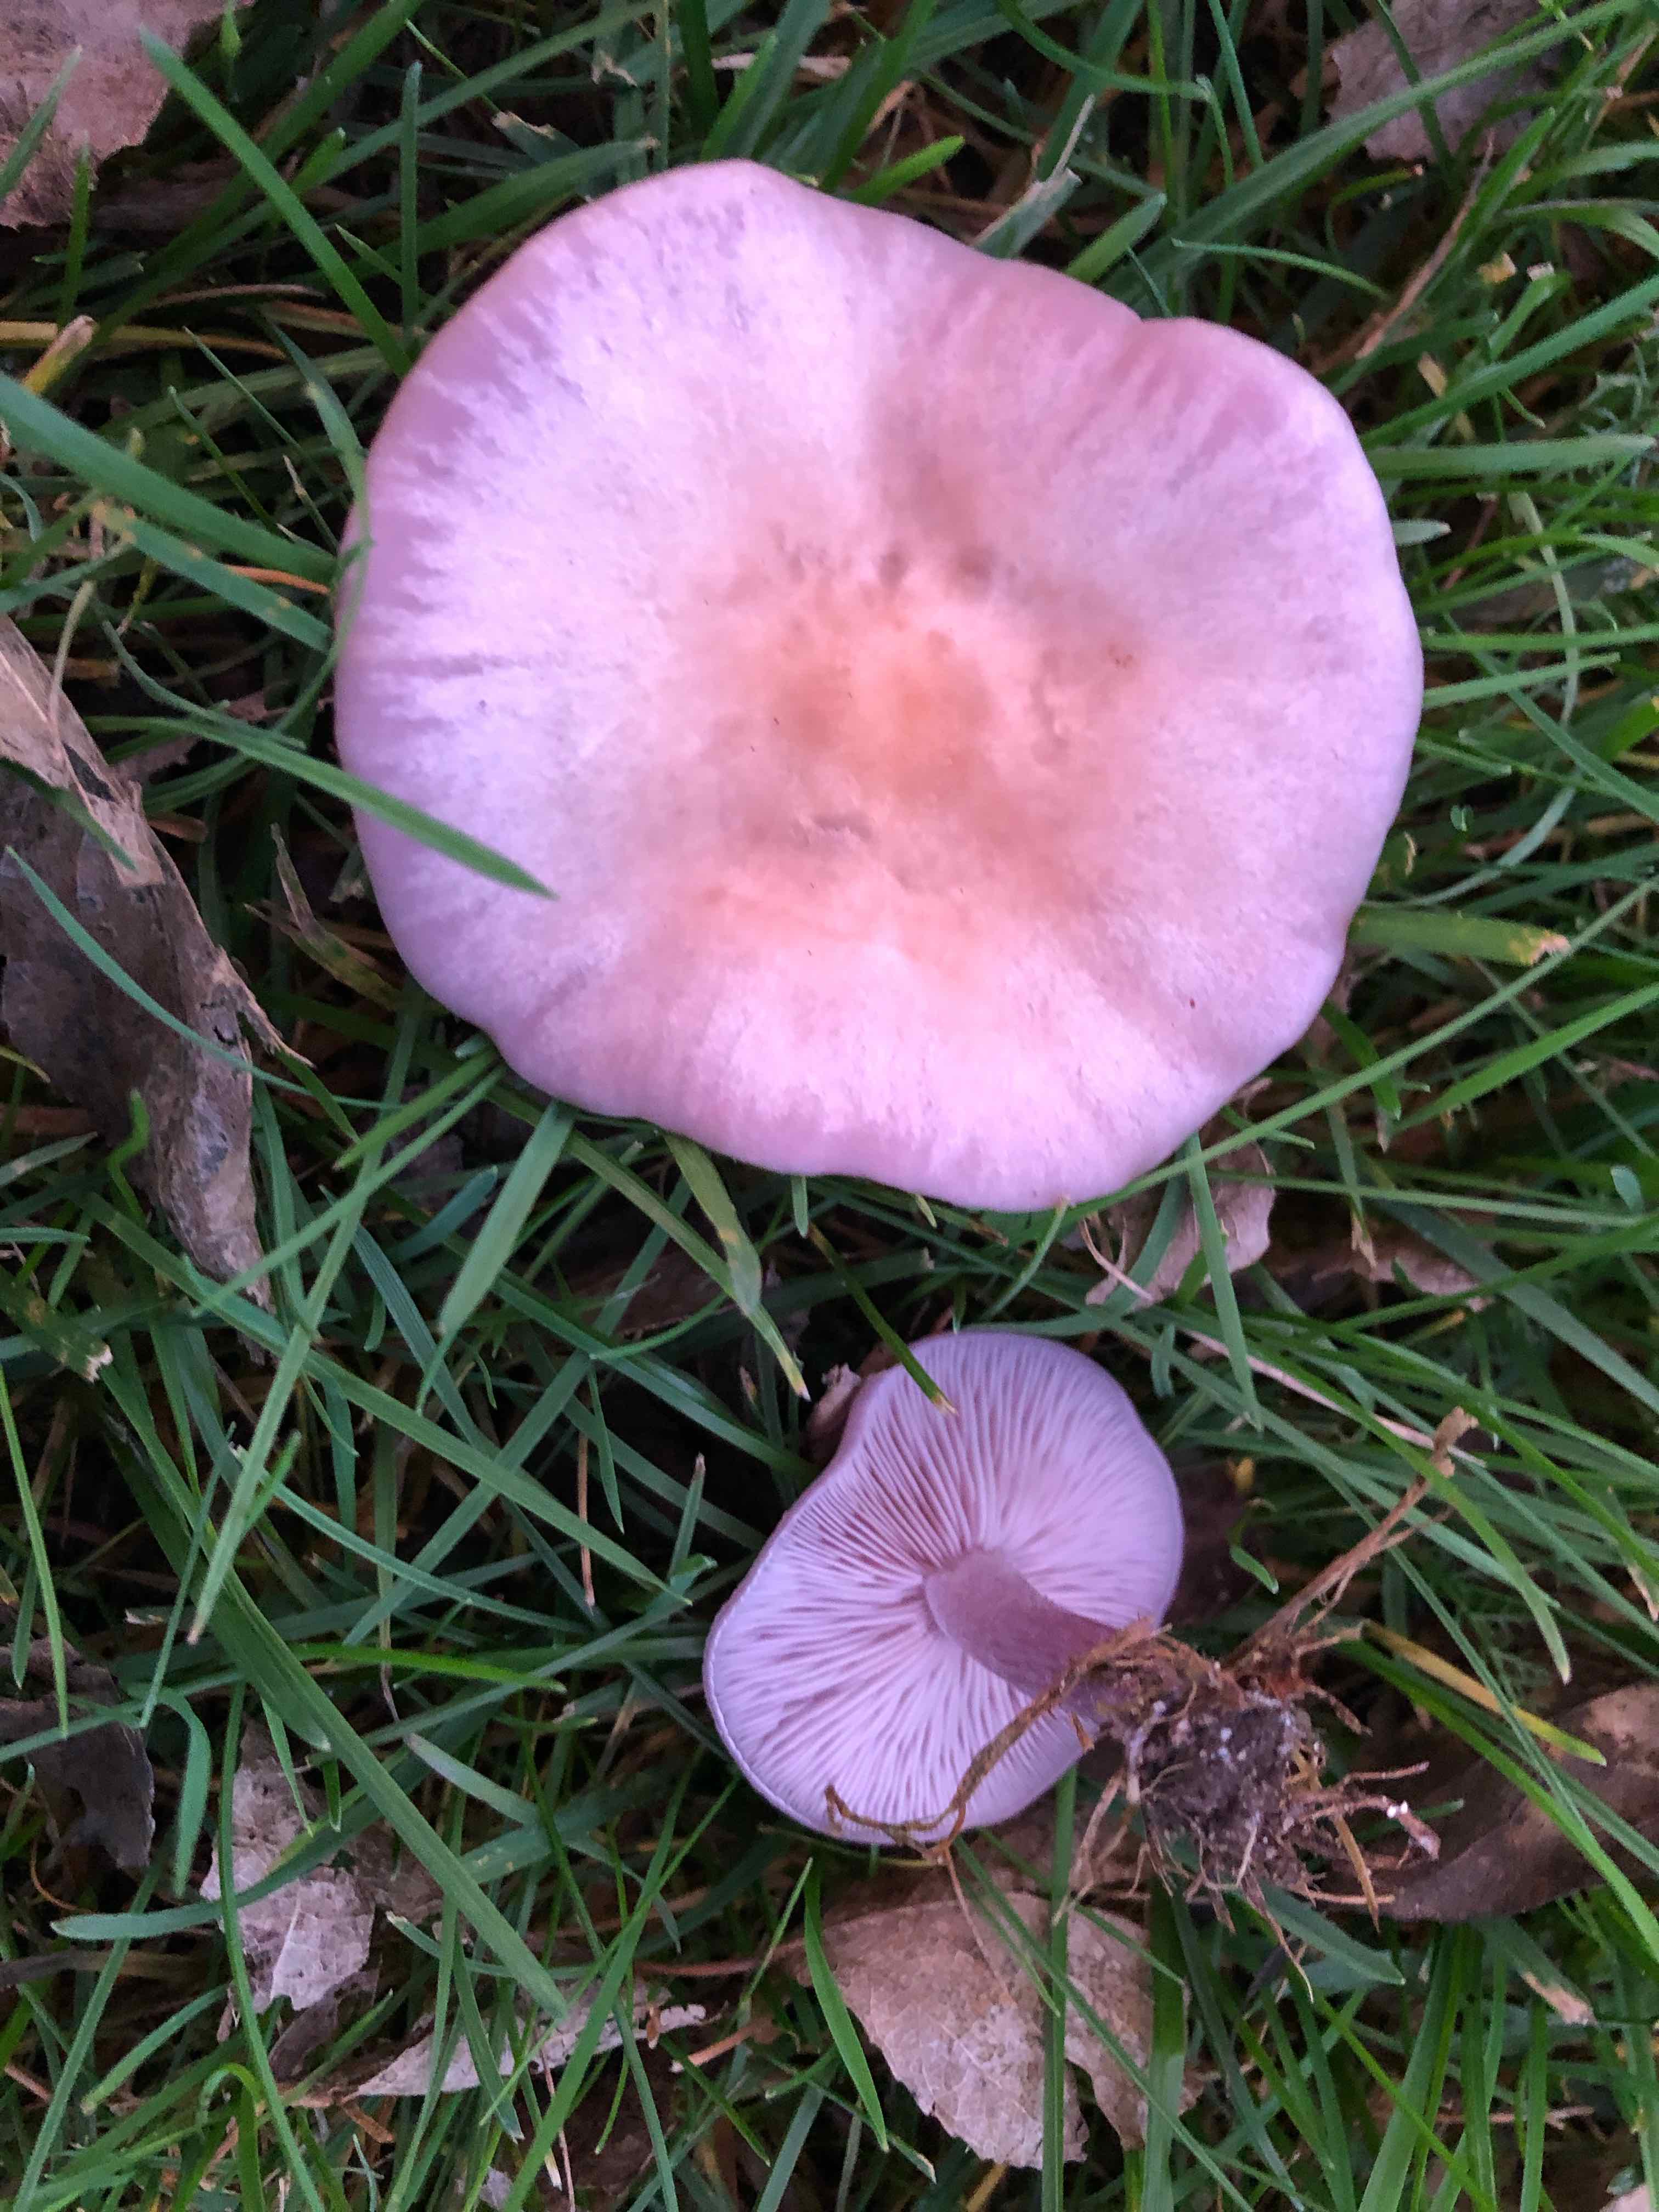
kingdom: Fungi
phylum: Basidiomycota
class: Agaricomycetes
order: Agaricales
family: Tricholomataceae
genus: Lepista
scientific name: Lepista lilacea
